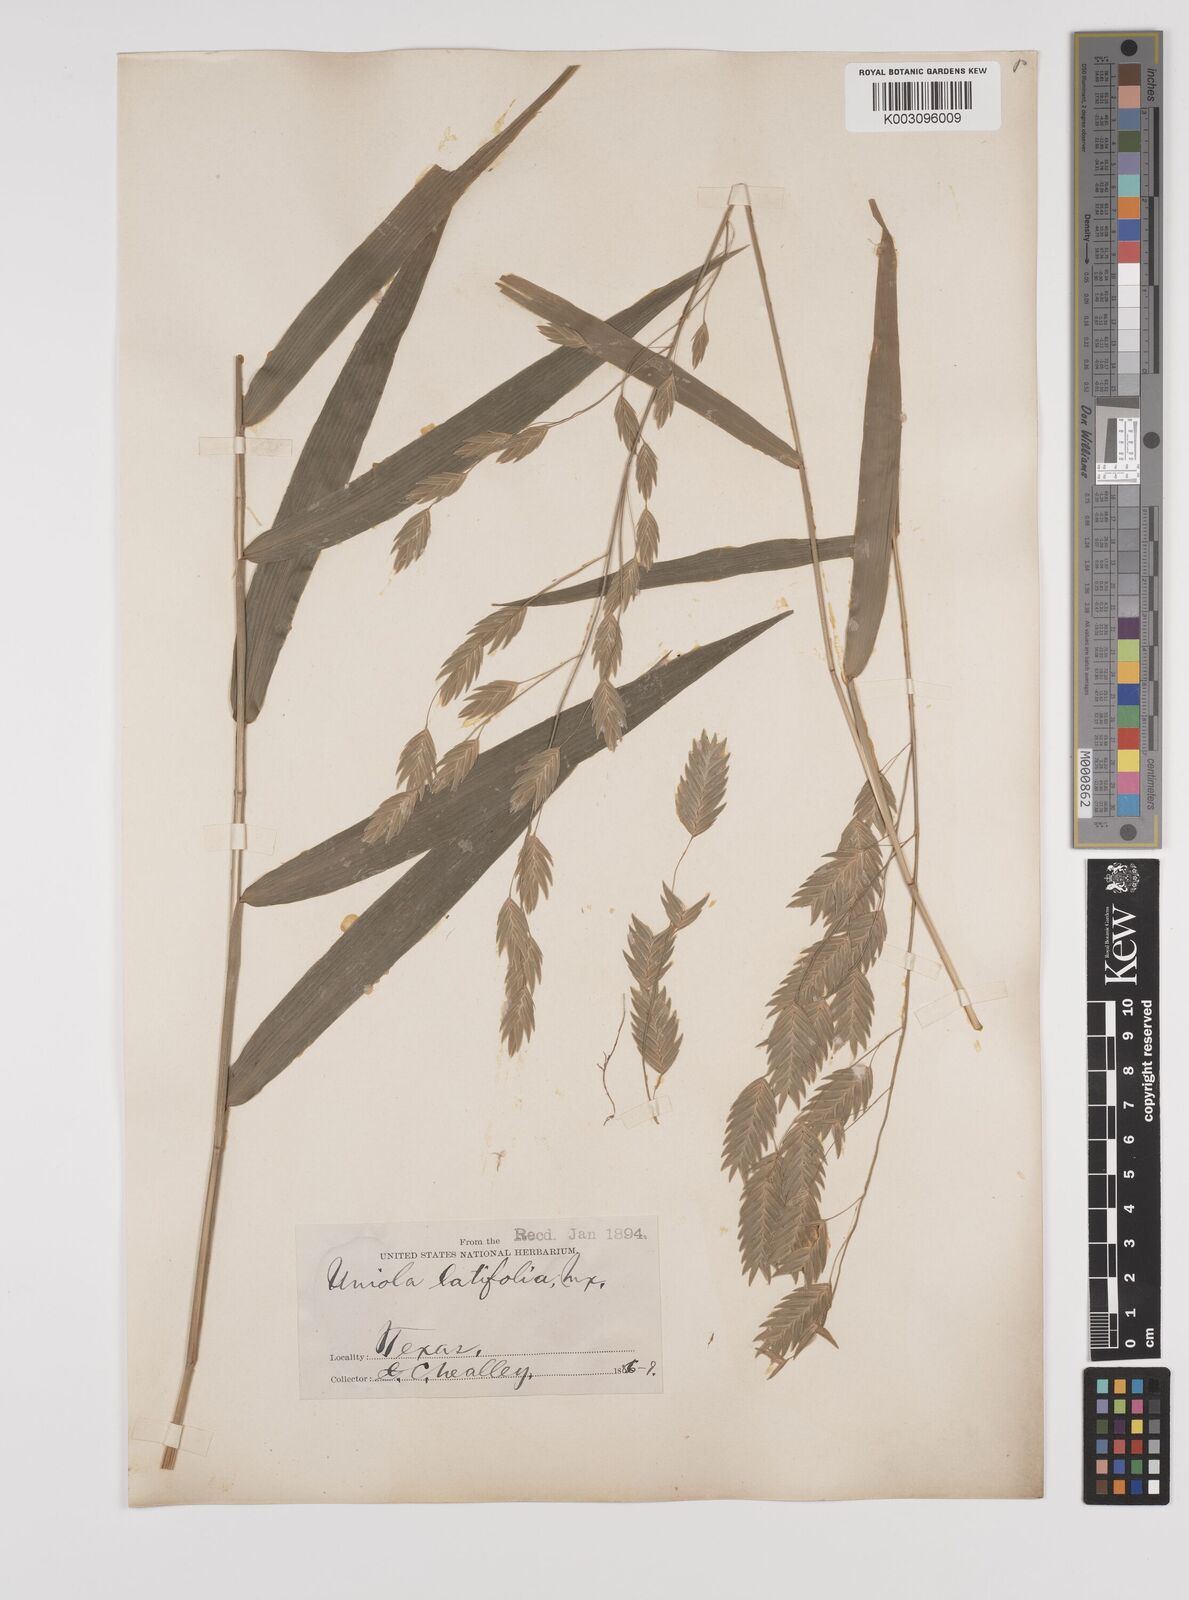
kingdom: Plantae
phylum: Tracheophyta
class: Liliopsida
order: Poales
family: Poaceae
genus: Chasmanthium
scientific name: Chasmanthium latifolium
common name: Broad-leaved chasmanthium
